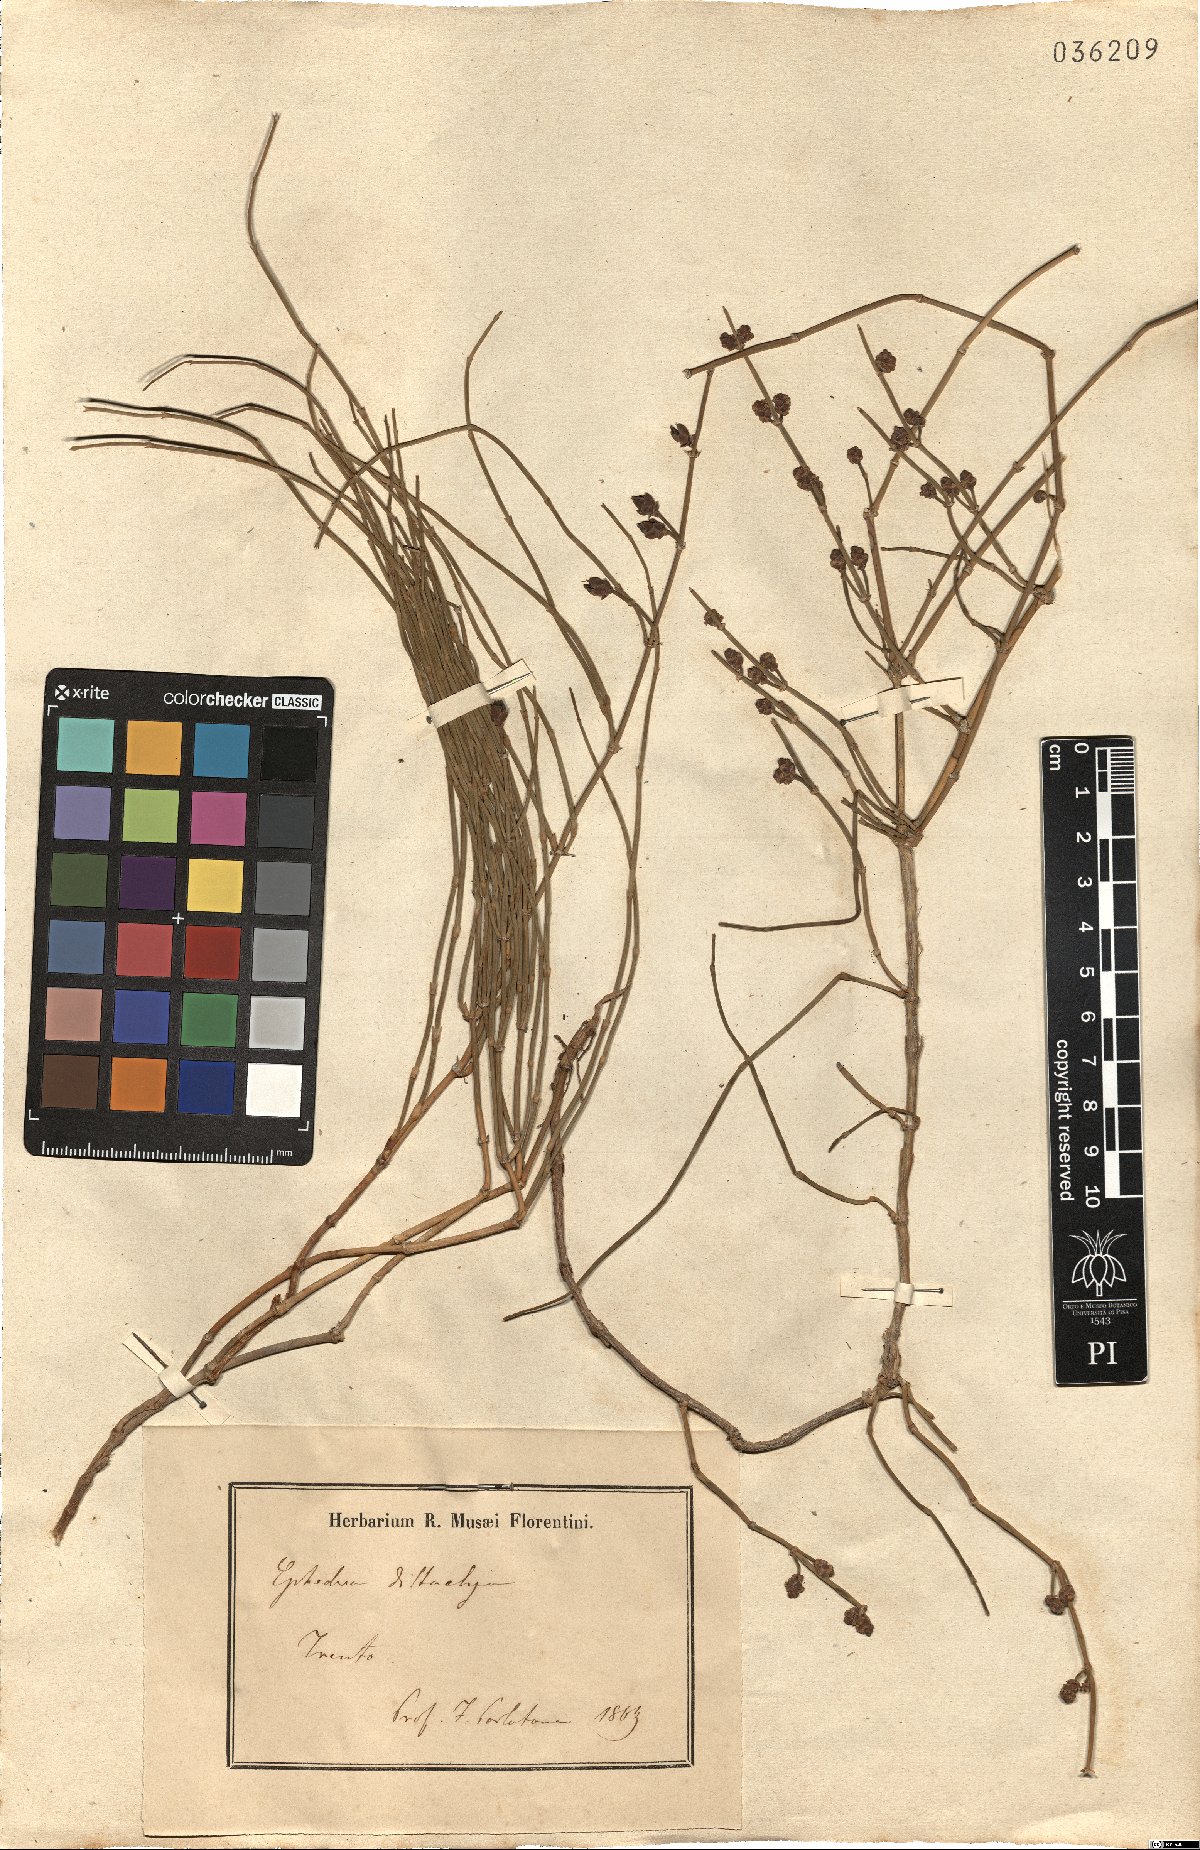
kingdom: Plantae
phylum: Tracheophyta
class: Gnetopsida
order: Ephedrales
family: Ephedraceae
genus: Ephedra
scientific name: Ephedra distachya
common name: Sea grape
